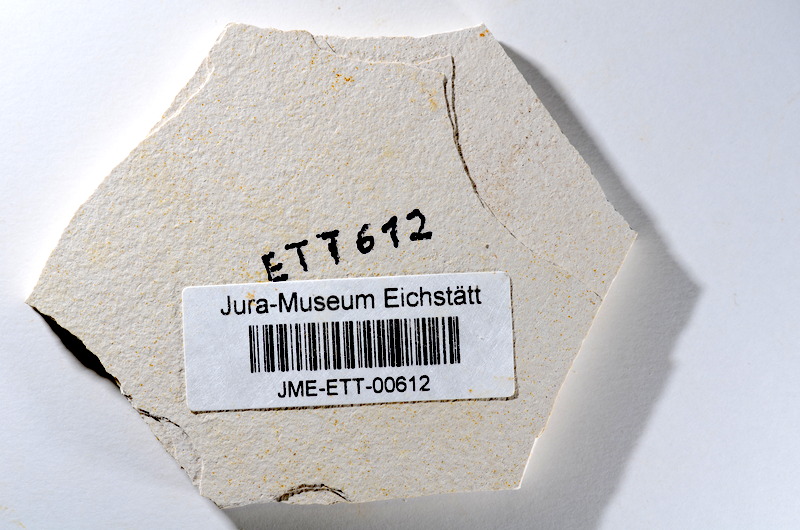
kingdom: Animalia
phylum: Chordata
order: Salmoniformes
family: Orthogonikleithridae
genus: Orthogonikleithrus
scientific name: Orthogonikleithrus hoelli
